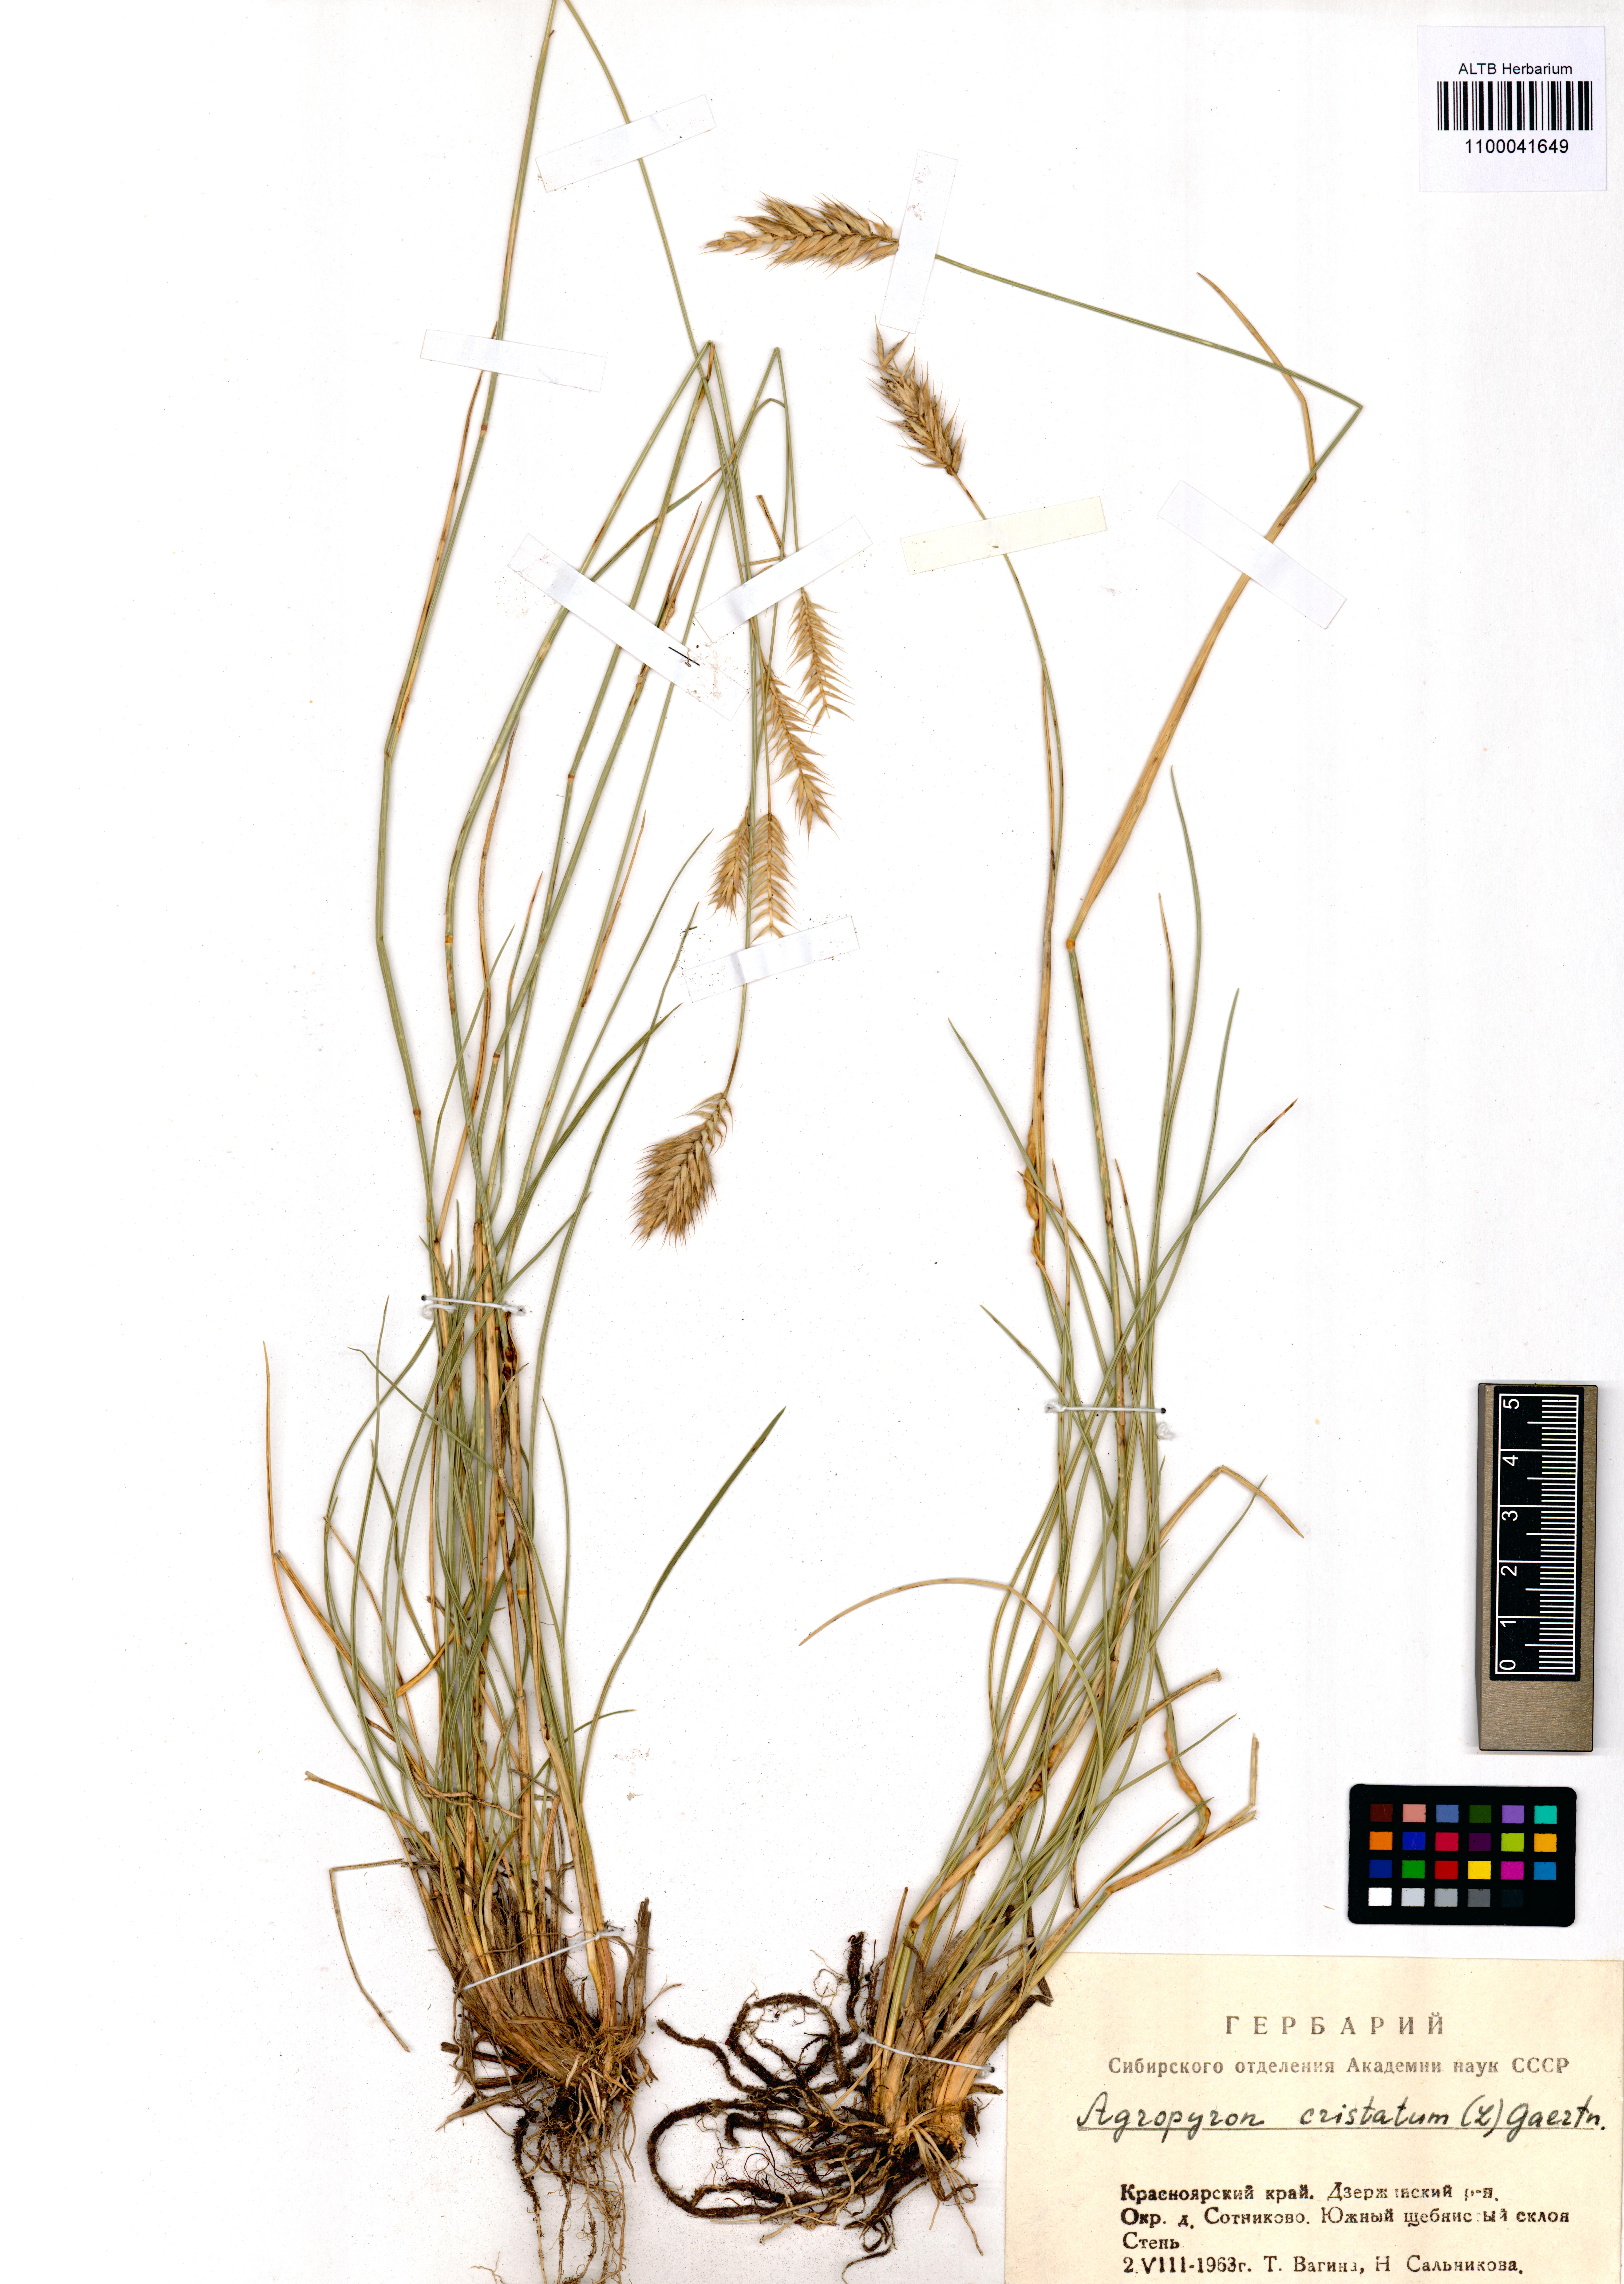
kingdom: Plantae
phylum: Tracheophyta
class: Liliopsida
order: Poales
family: Poaceae
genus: Agropyron
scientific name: Agropyron cristatum
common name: Crested wheatgrass
